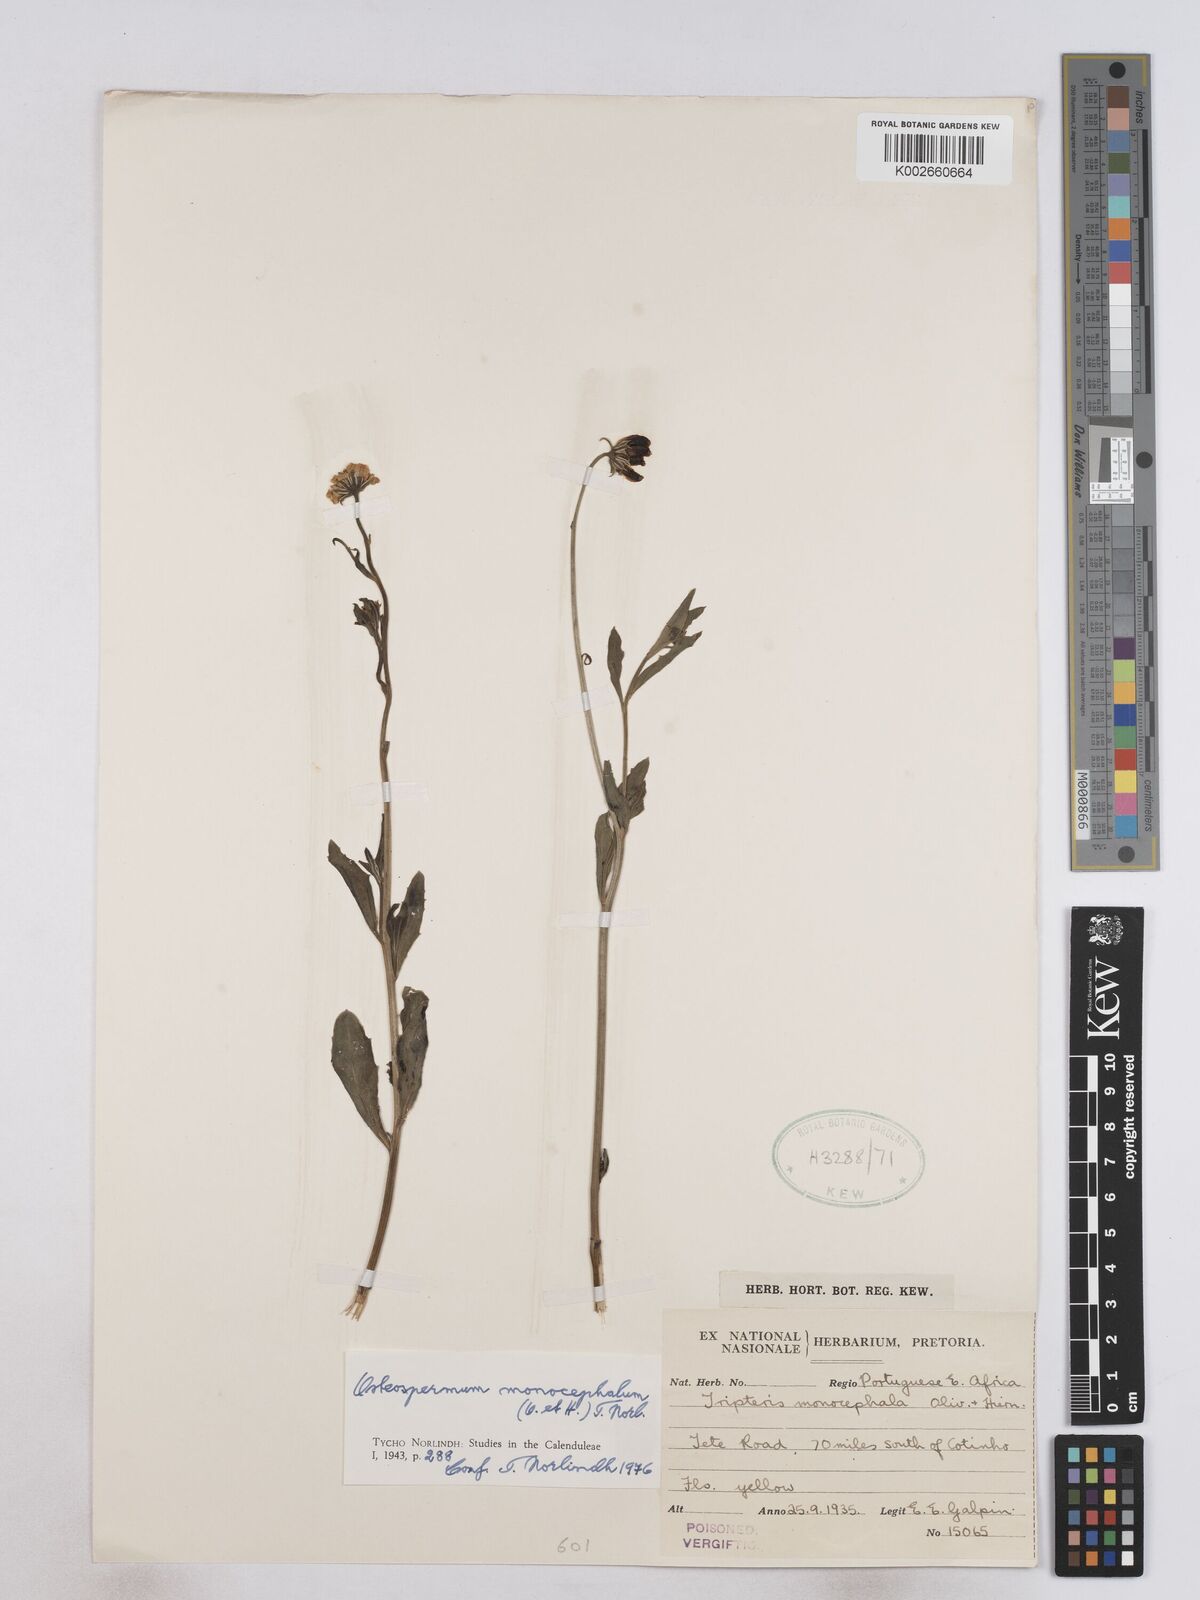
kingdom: Plantae
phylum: Tracheophyta
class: Magnoliopsida
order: Asterales
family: Asteraceae
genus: Osteospermum
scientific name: Osteospermum monocephalum
